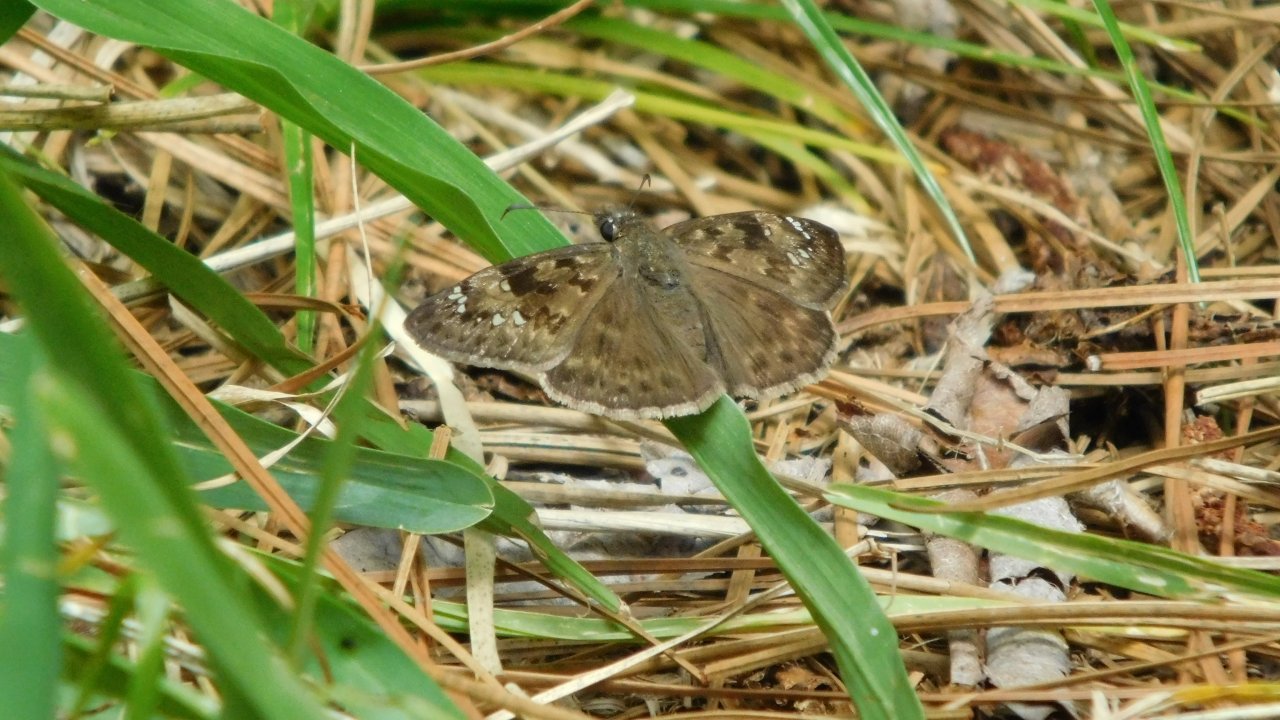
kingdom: Animalia
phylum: Arthropoda
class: Insecta
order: Lepidoptera
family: Hesperiidae
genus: Gesta
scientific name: Gesta
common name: Horace's Duskywing
